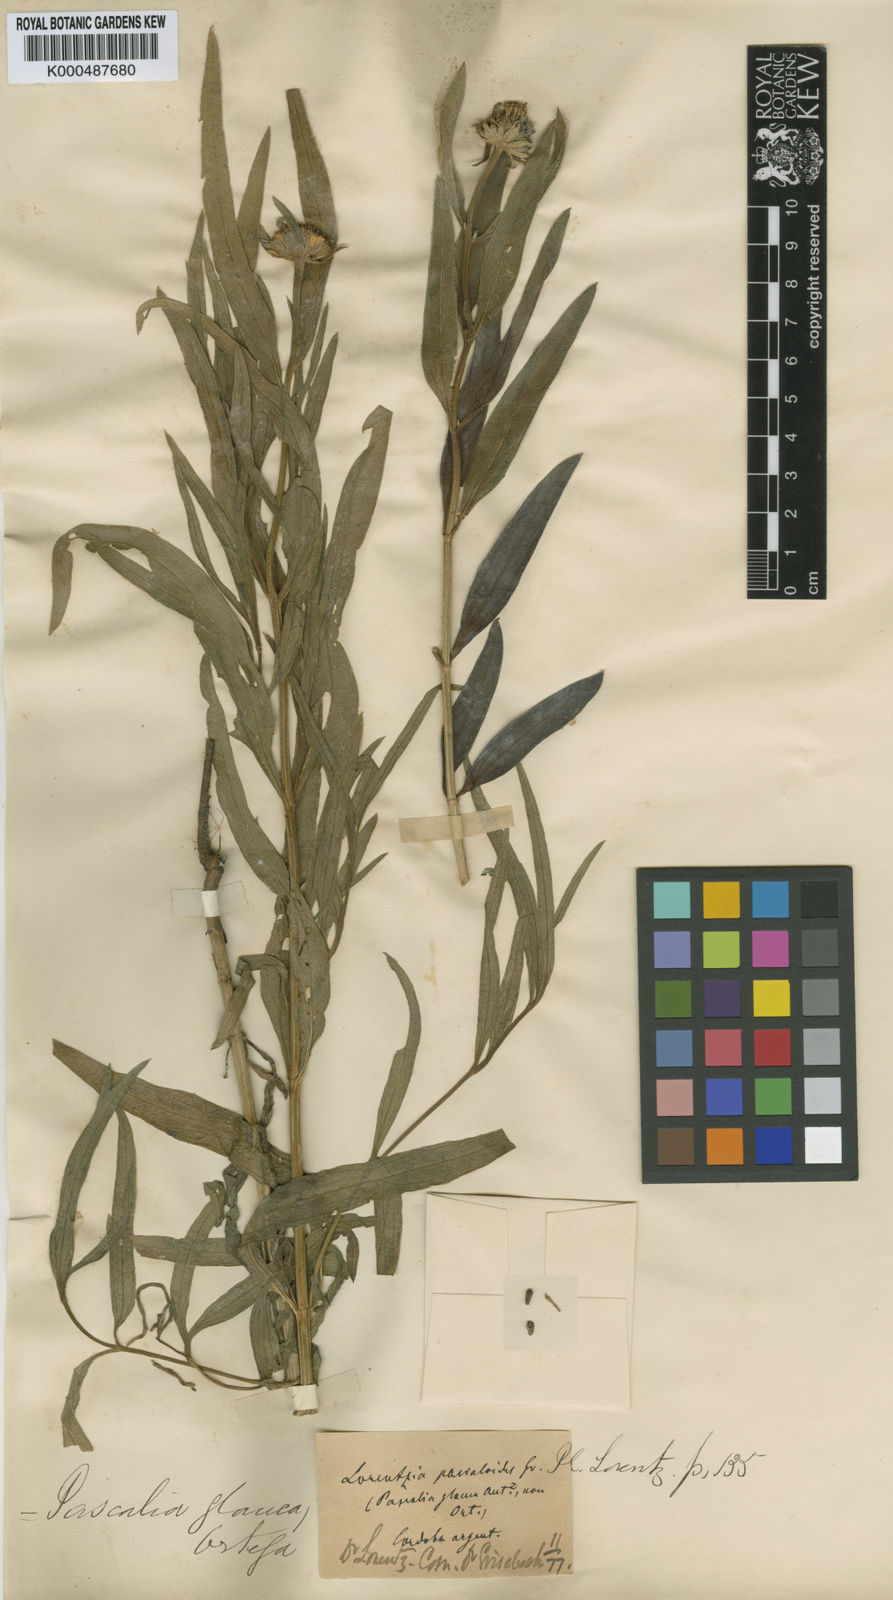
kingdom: Plantae
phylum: Tracheophyta
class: Magnoliopsida
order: Asterales
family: Asteraceae
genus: Wedelia
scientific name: Wedelia
